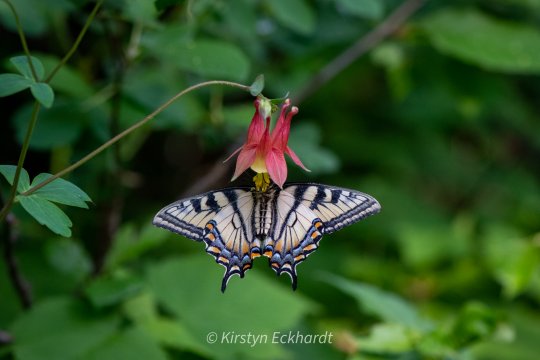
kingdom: Animalia
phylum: Arthropoda
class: Insecta
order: Lepidoptera
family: Papilionidae
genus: Pterourus
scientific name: Pterourus canadensis
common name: Canadian Tiger Swallowtail
